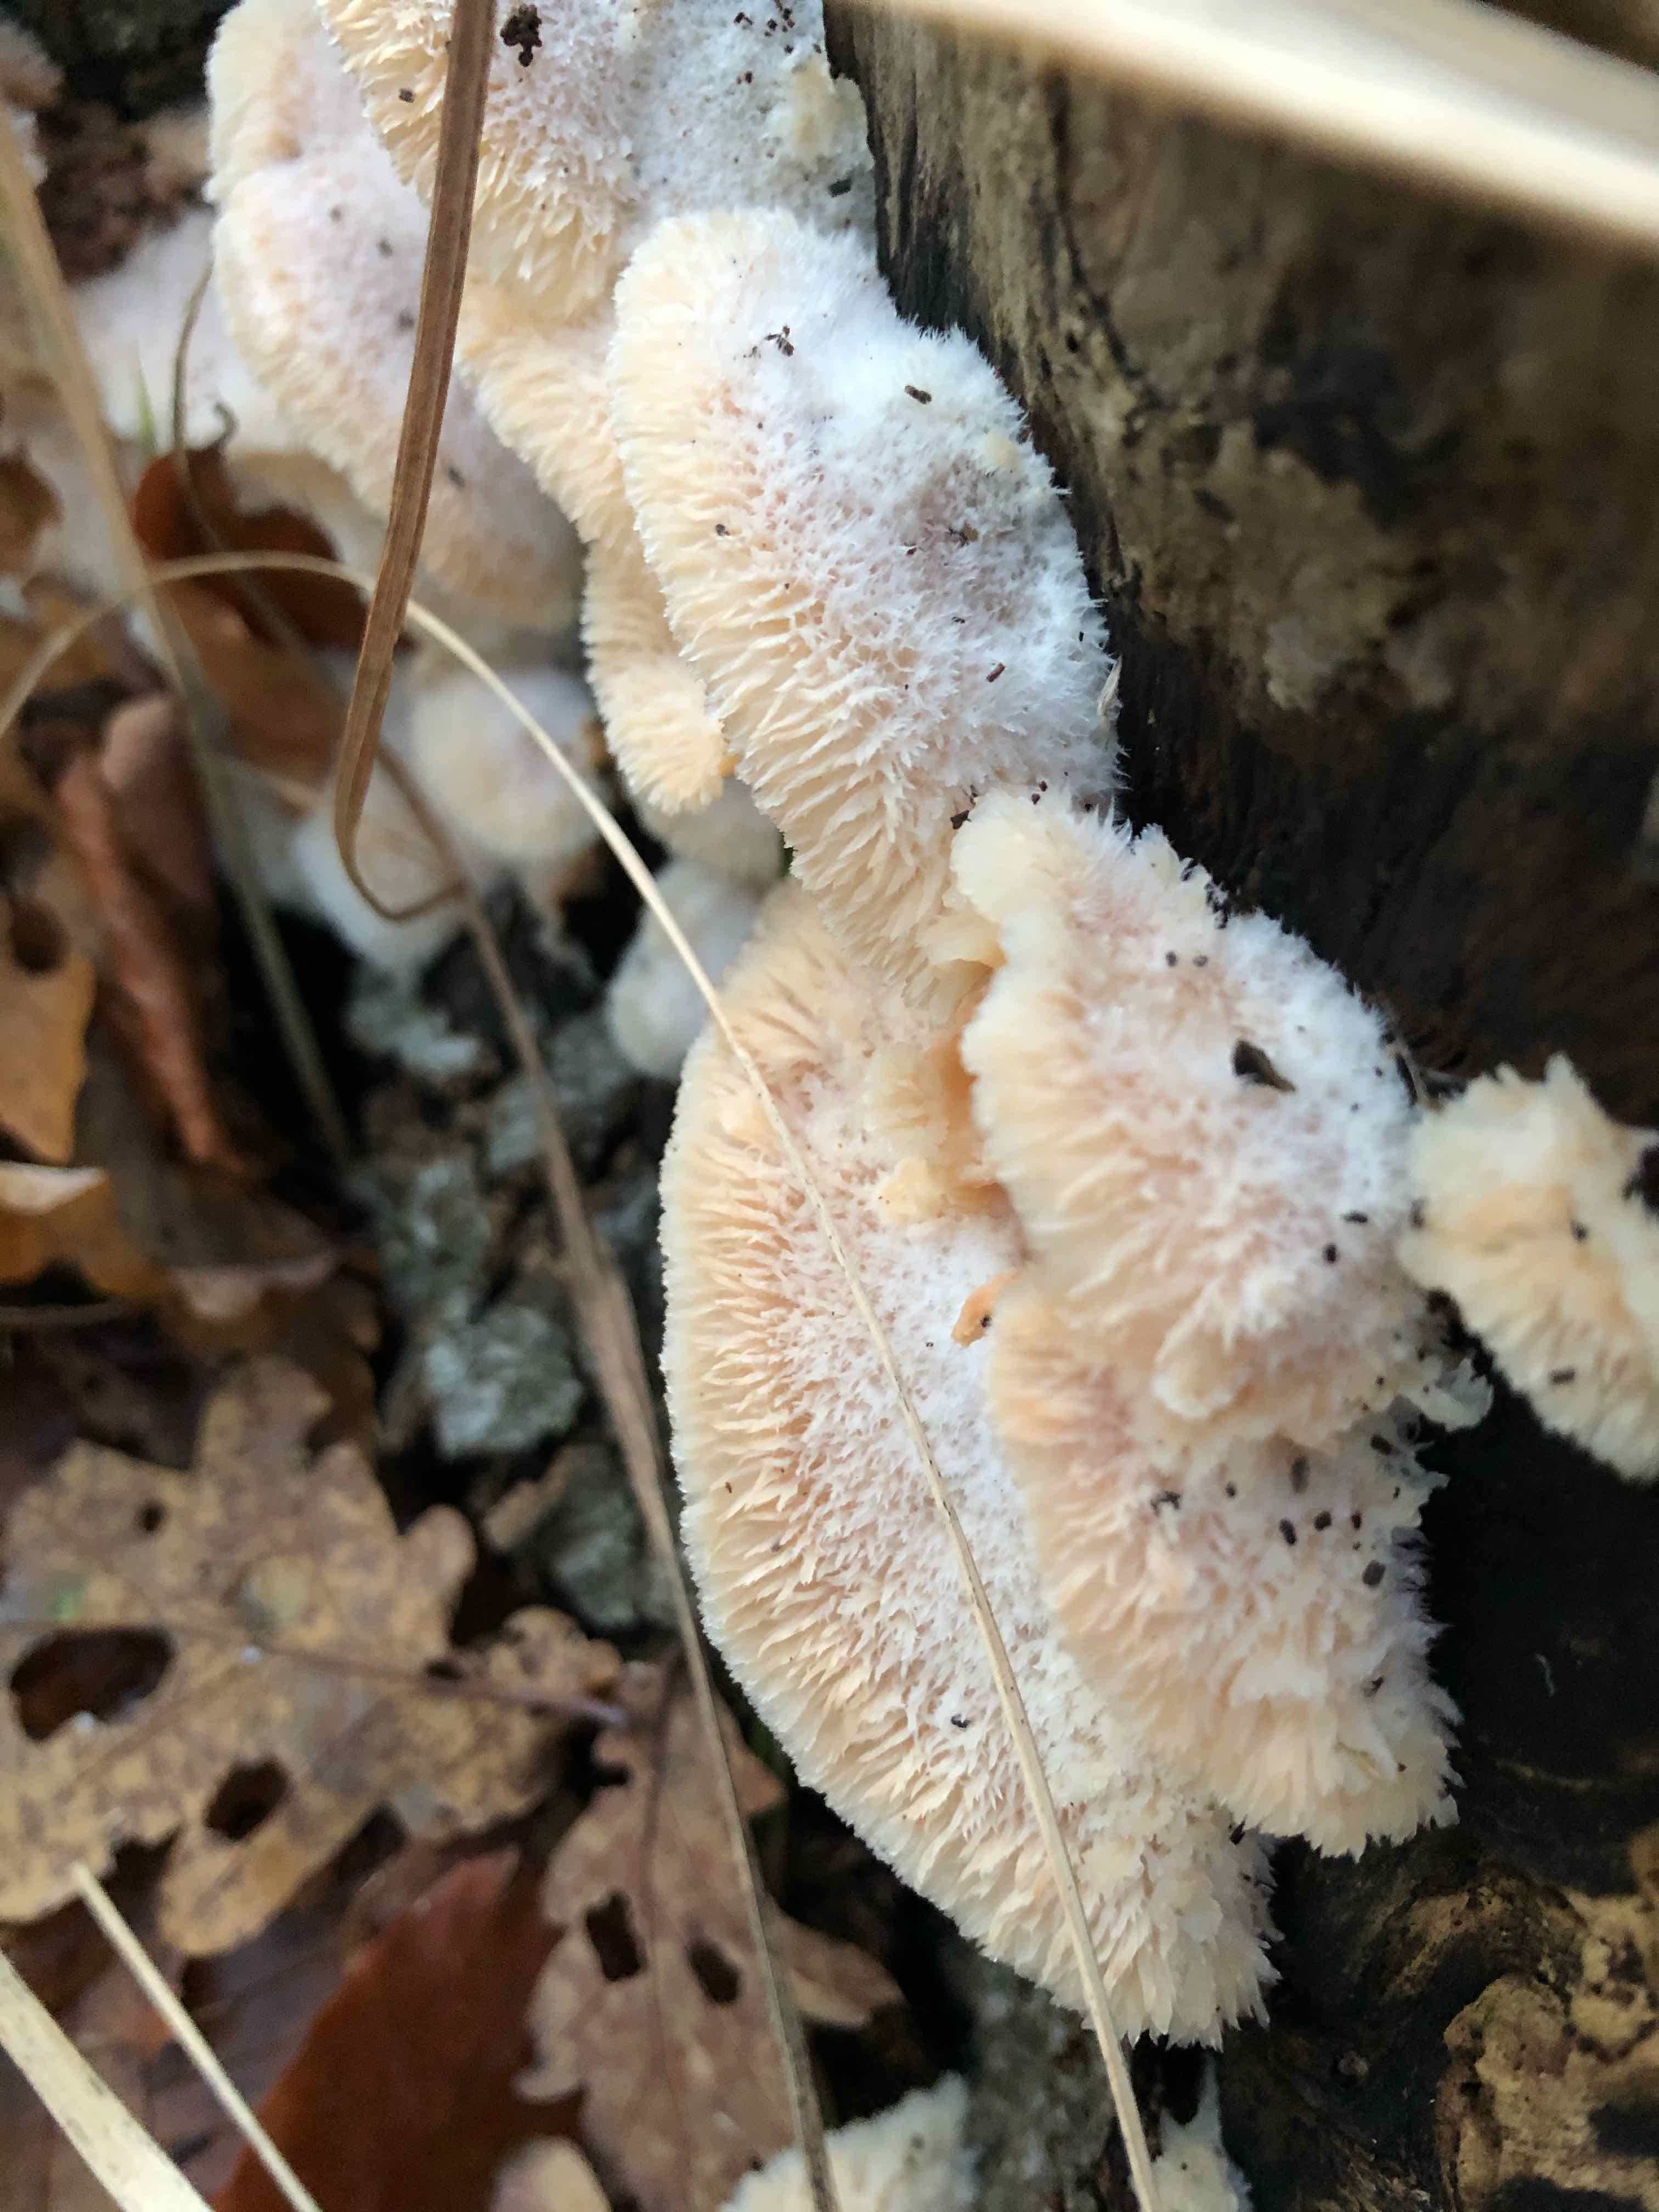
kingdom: Fungi
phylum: Basidiomycota
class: Agaricomycetes
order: Polyporales
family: Meruliaceae
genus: Phlebia
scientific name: Phlebia tremellosa
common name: bævrende åresvamp
